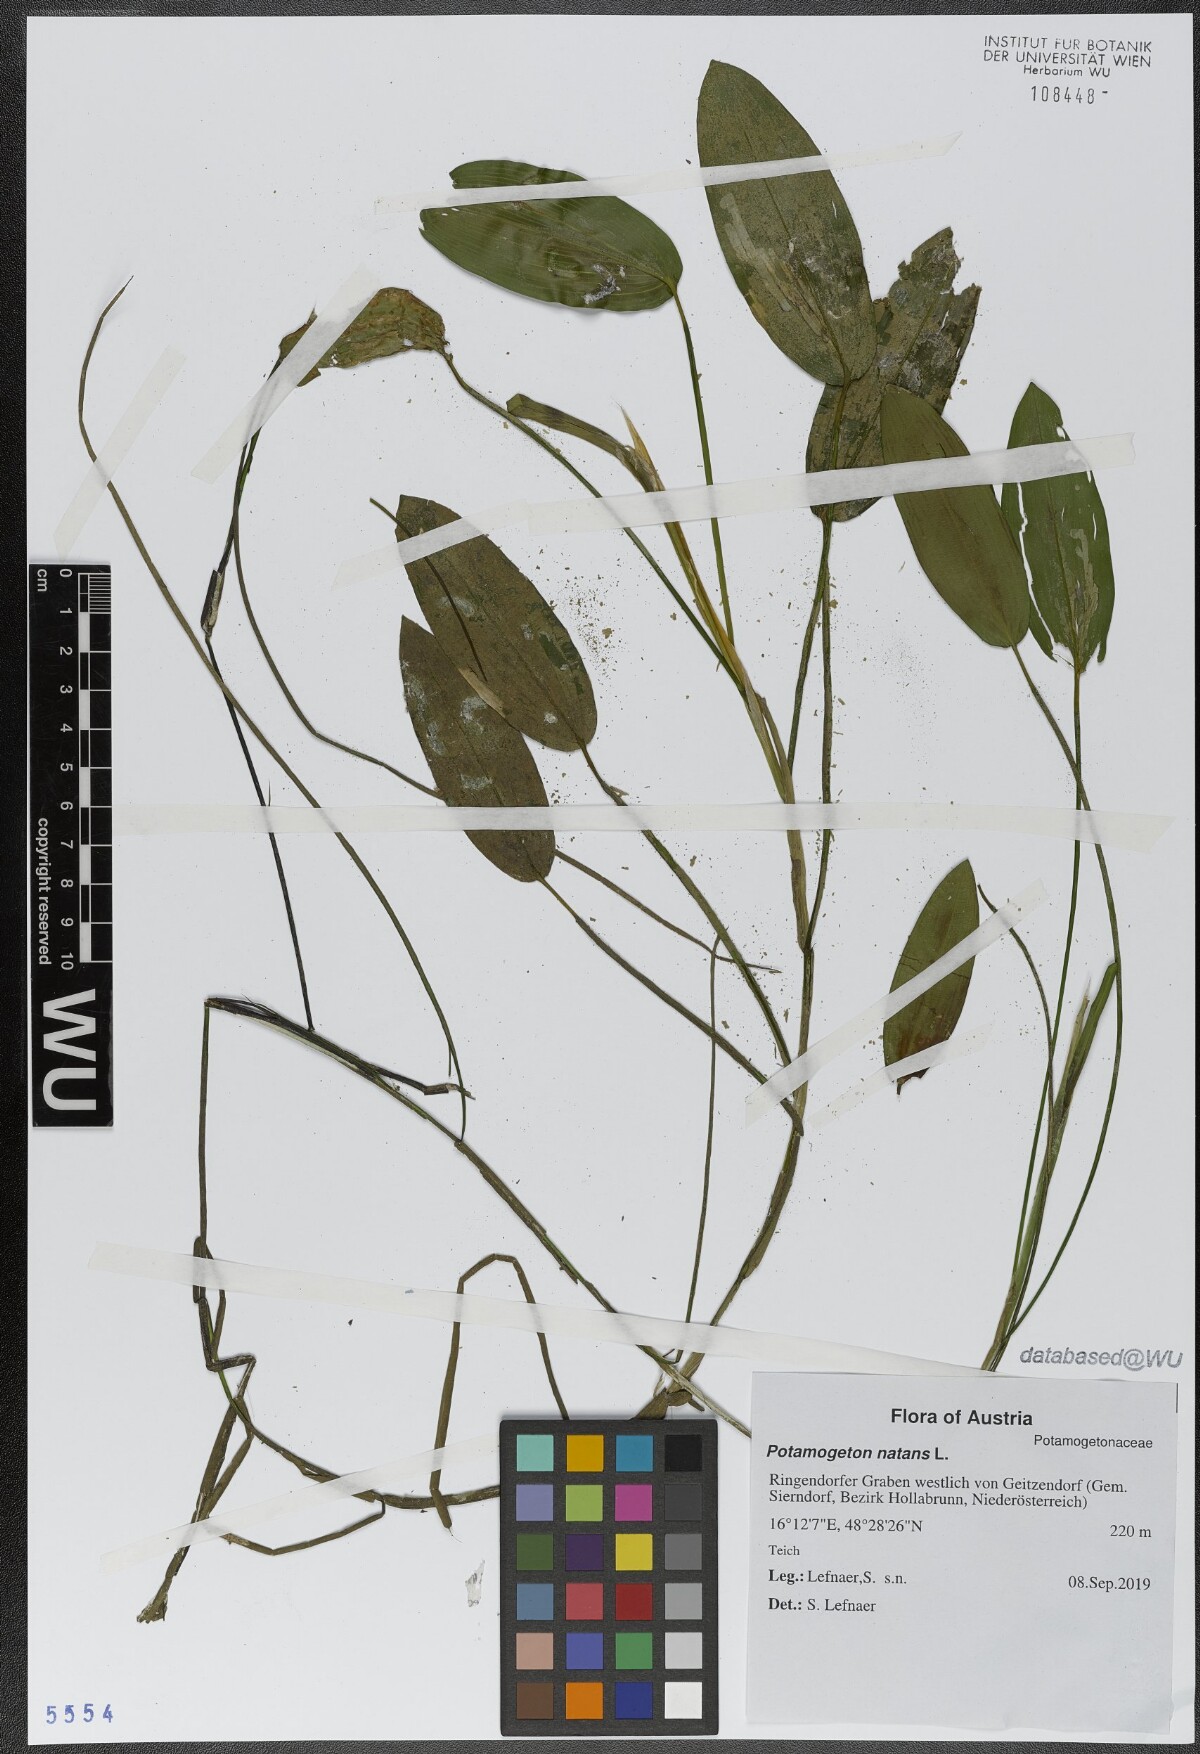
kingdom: Plantae
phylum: Tracheophyta
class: Liliopsida
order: Alismatales
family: Potamogetonaceae
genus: Potamogeton
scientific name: Potamogeton natans
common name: Broad-leaved pondweed
